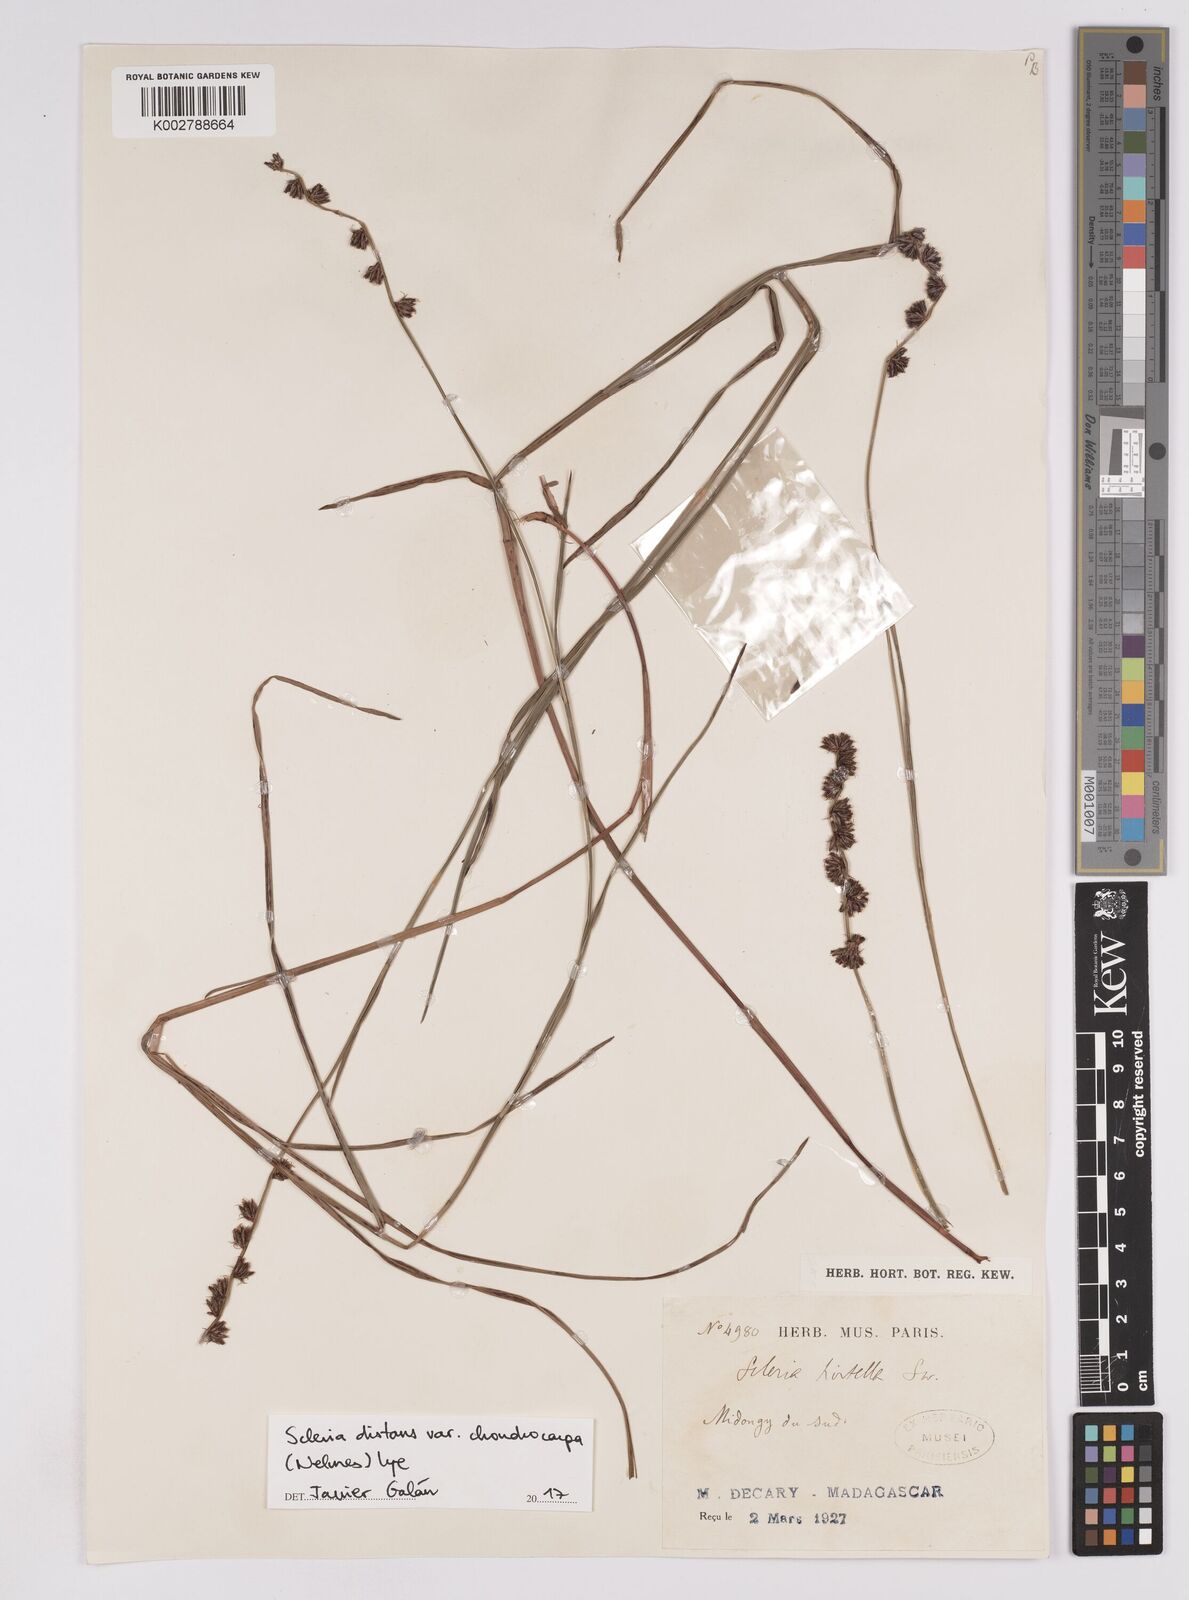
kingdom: Plantae
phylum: Tracheophyta
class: Liliopsida
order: Poales
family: Cyperaceae
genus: Scleria
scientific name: Scleria distans
